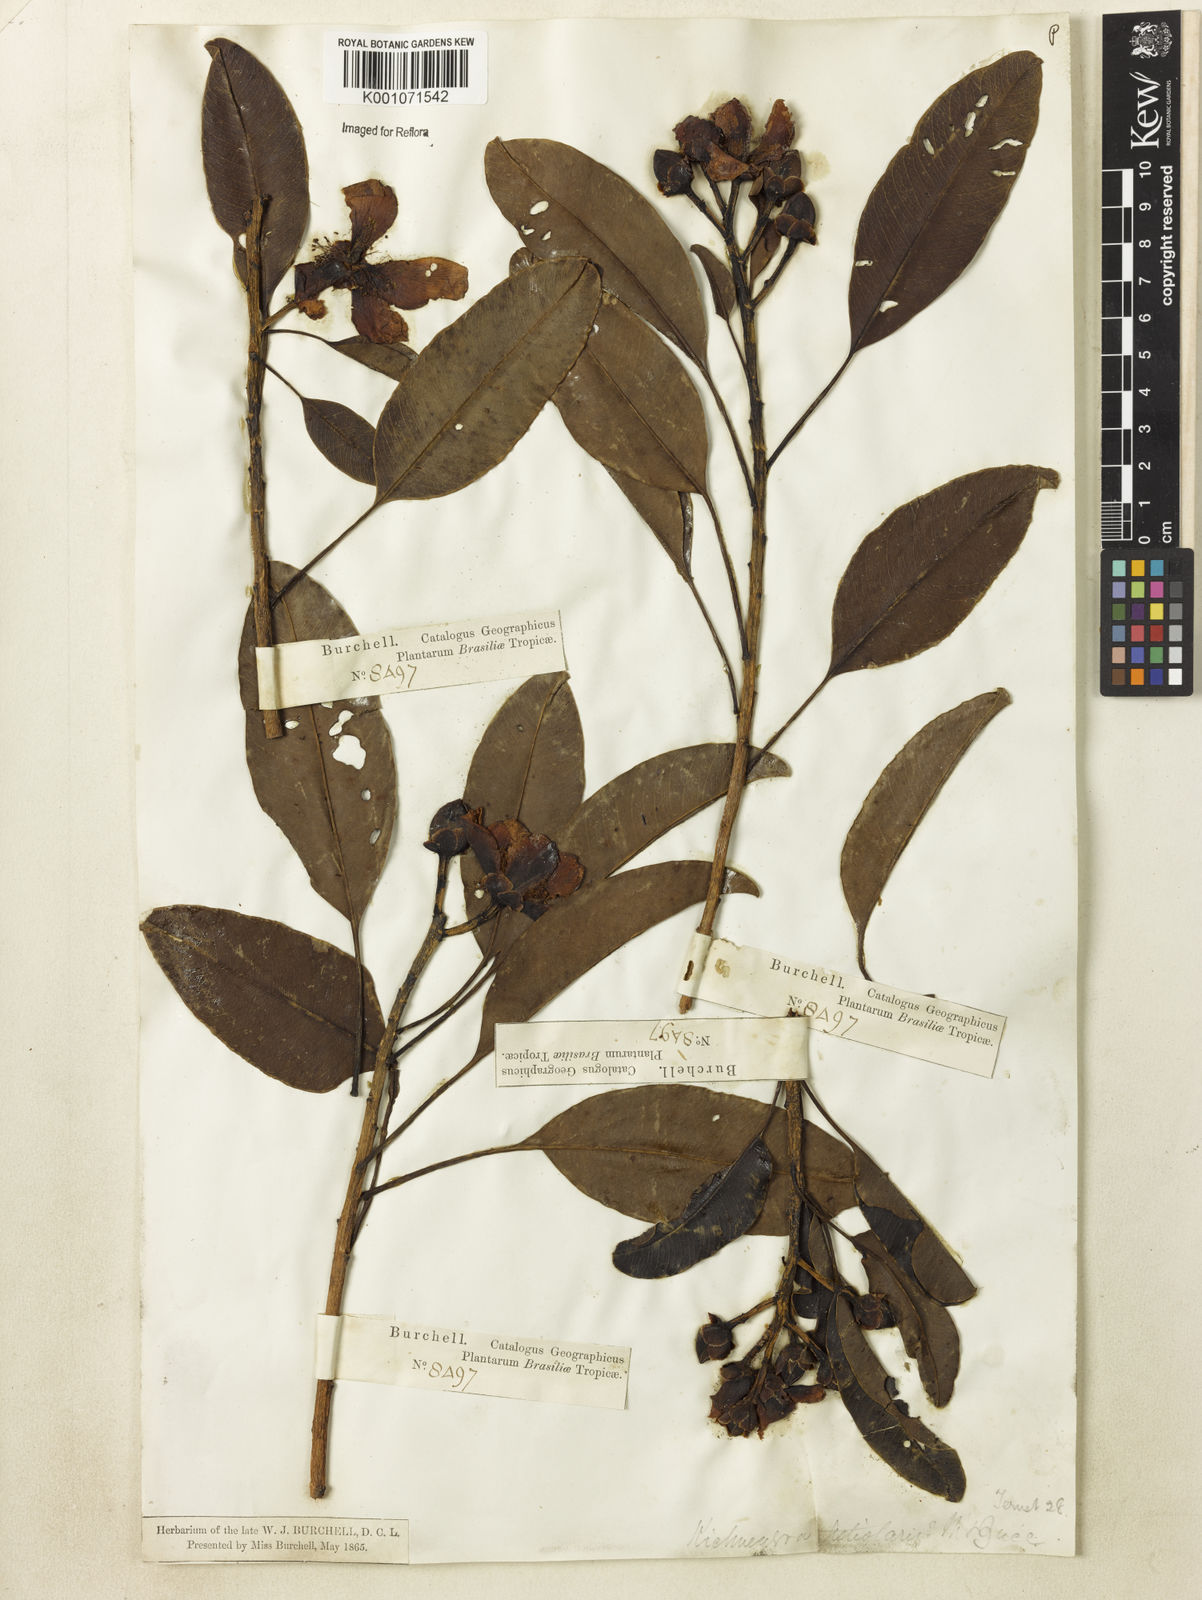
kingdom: Plantae
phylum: Tracheophyta
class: Magnoliopsida
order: Malpighiales
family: Calophyllaceae
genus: Kielmeyera
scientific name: Kielmeyera petiolaris
